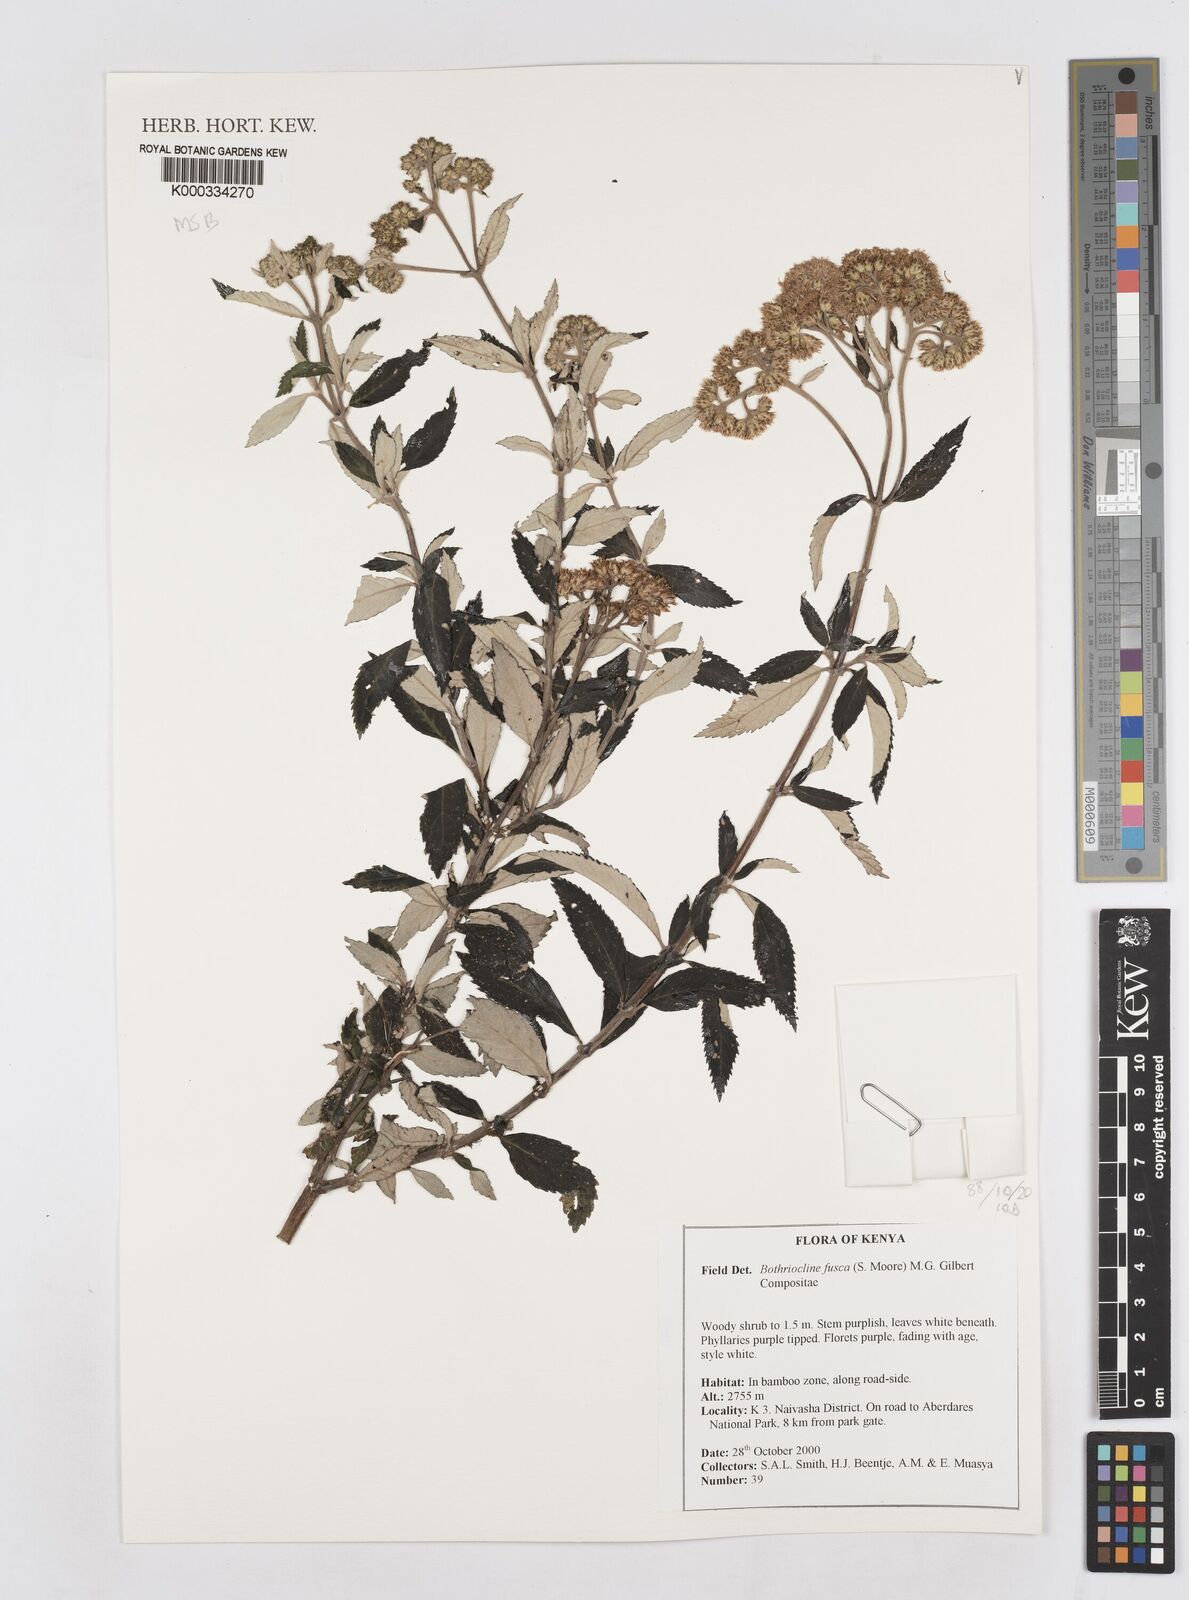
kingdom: Plantae
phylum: Tracheophyta
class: Magnoliopsida
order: Asterales
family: Asteraceae
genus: Bothriocline
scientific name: Bothriocline fusca
